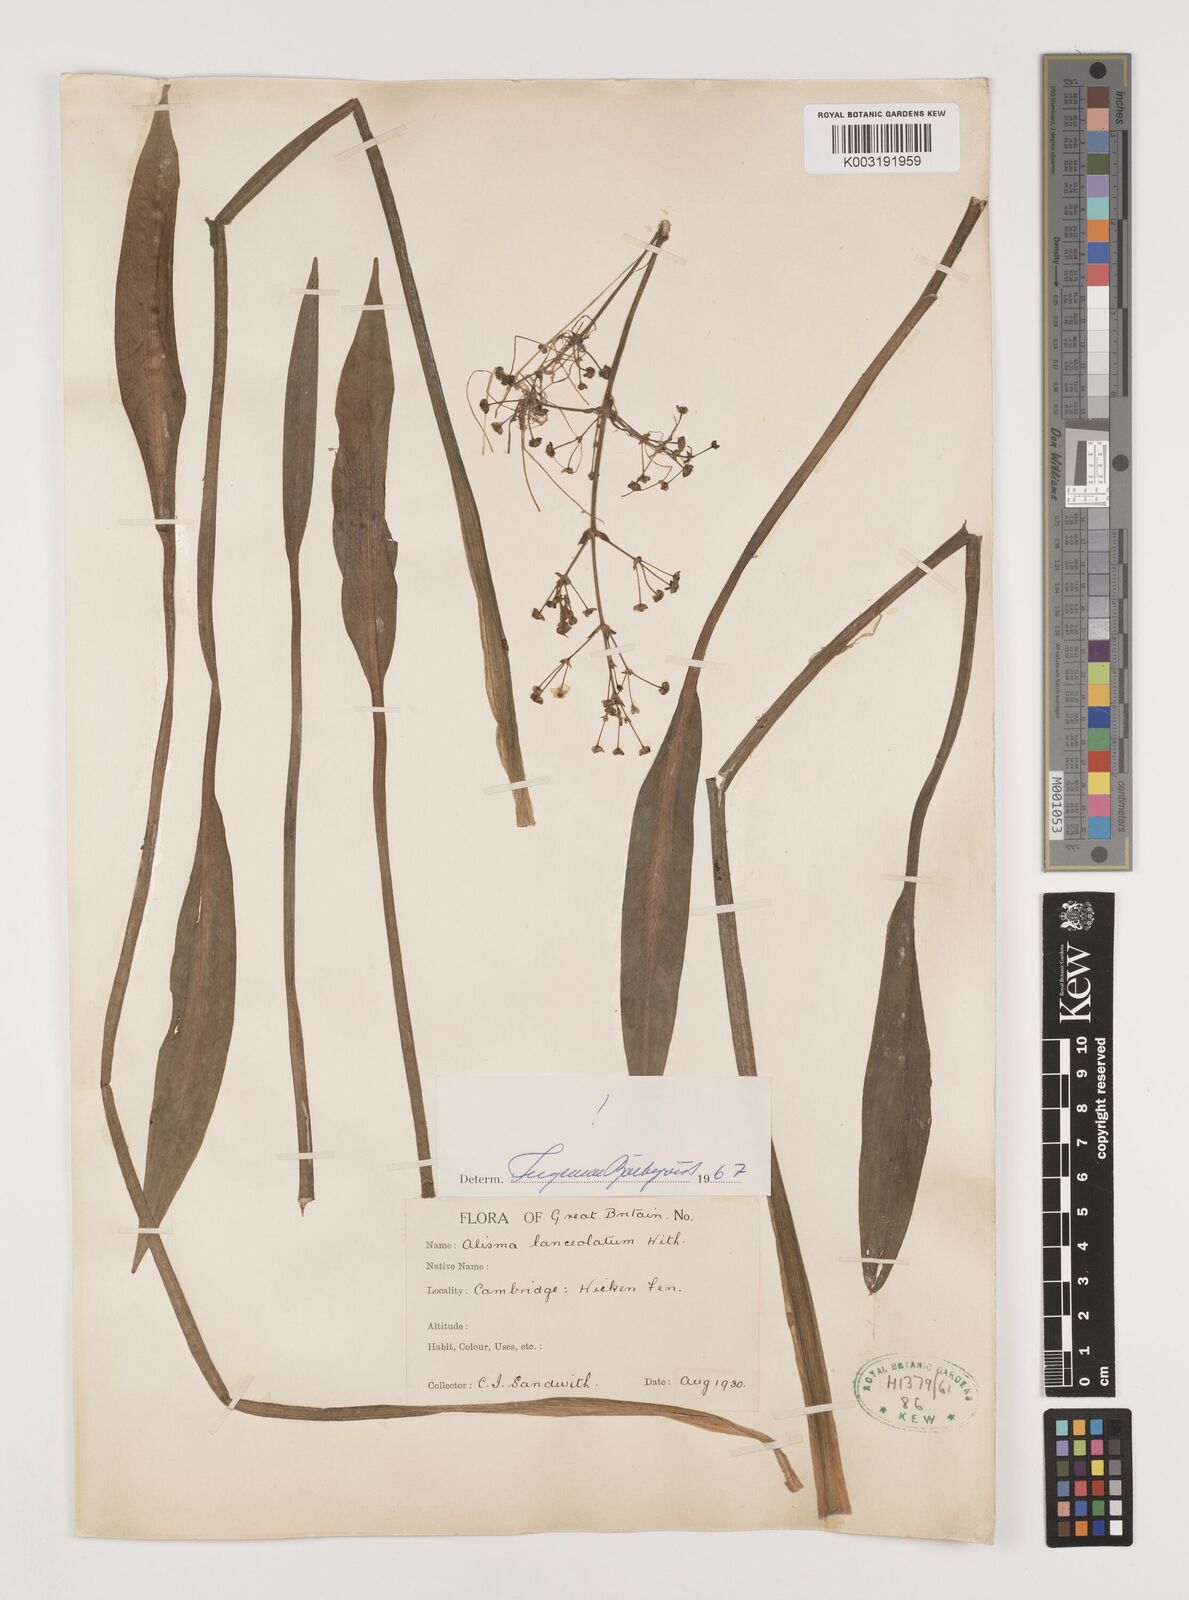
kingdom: Plantae
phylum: Tracheophyta
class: Liliopsida
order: Alismatales
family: Alismataceae
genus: Alisma
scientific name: Alisma lanceolatum
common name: Narrow-leaved water-plantain
